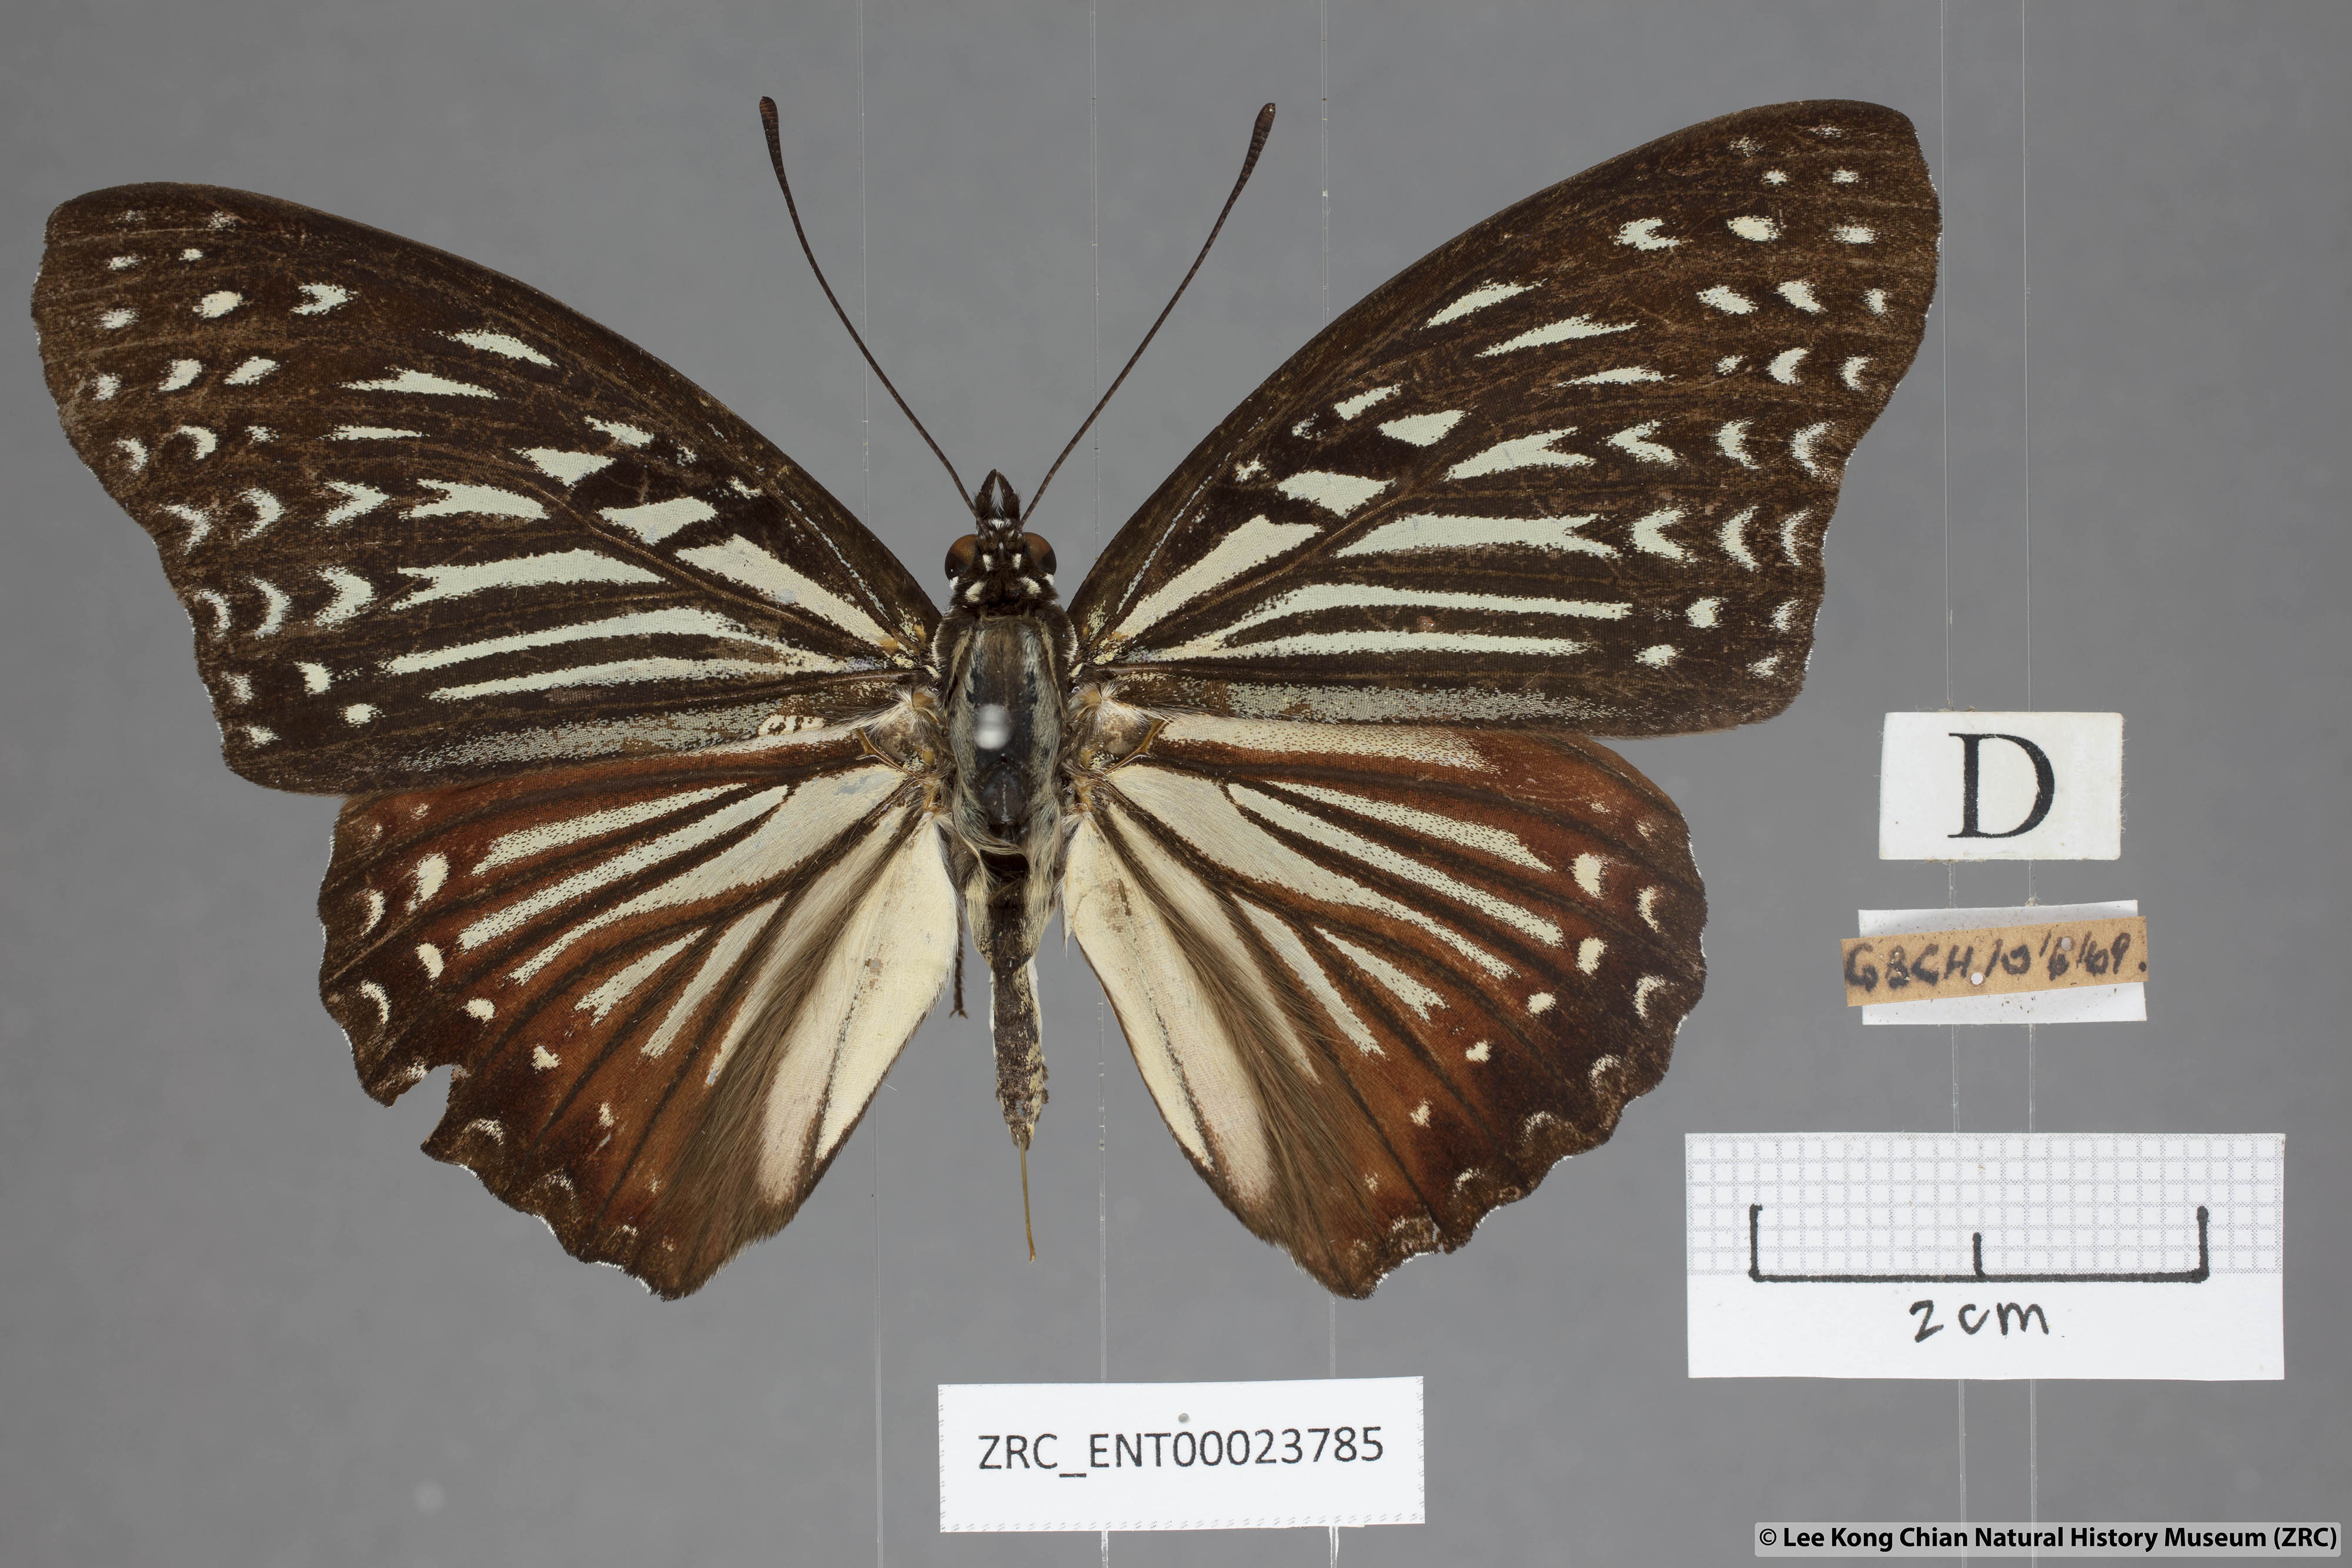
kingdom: Animalia
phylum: Arthropoda
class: Insecta
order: Lepidoptera
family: Nymphalidae
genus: Hestinalis
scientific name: Hestinalis nama
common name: Circe
